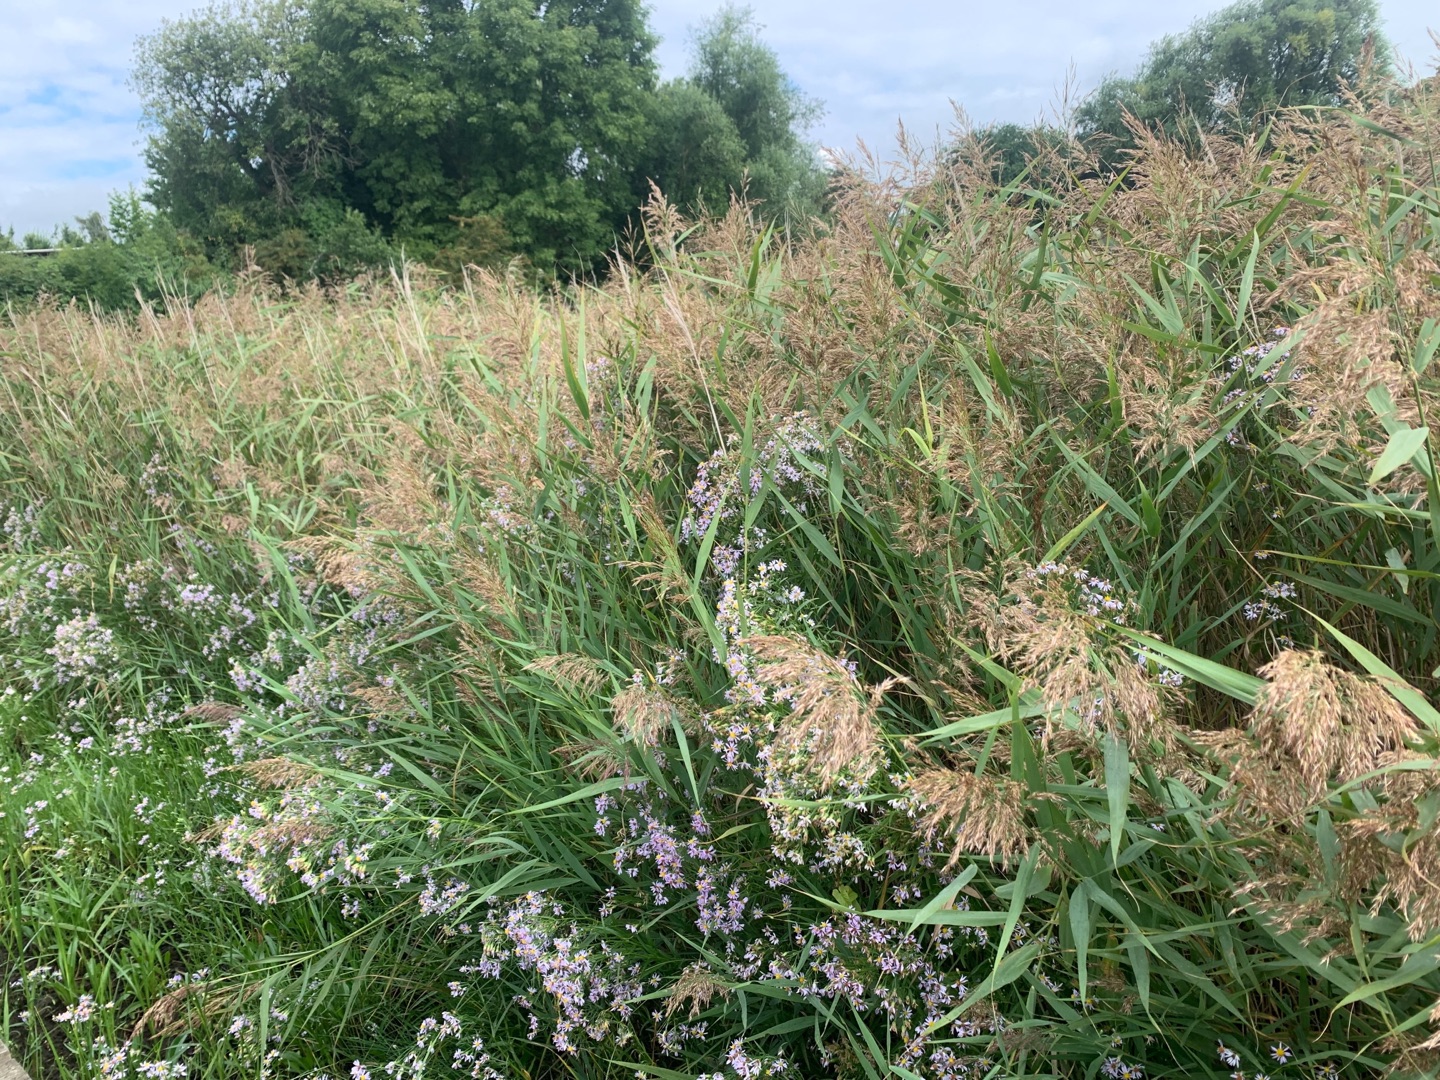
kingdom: Plantae
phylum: Tracheophyta
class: Magnoliopsida
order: Asterales
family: Asteraceae
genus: Tripolium
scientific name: Tripolium pannonicum
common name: Strandasters
